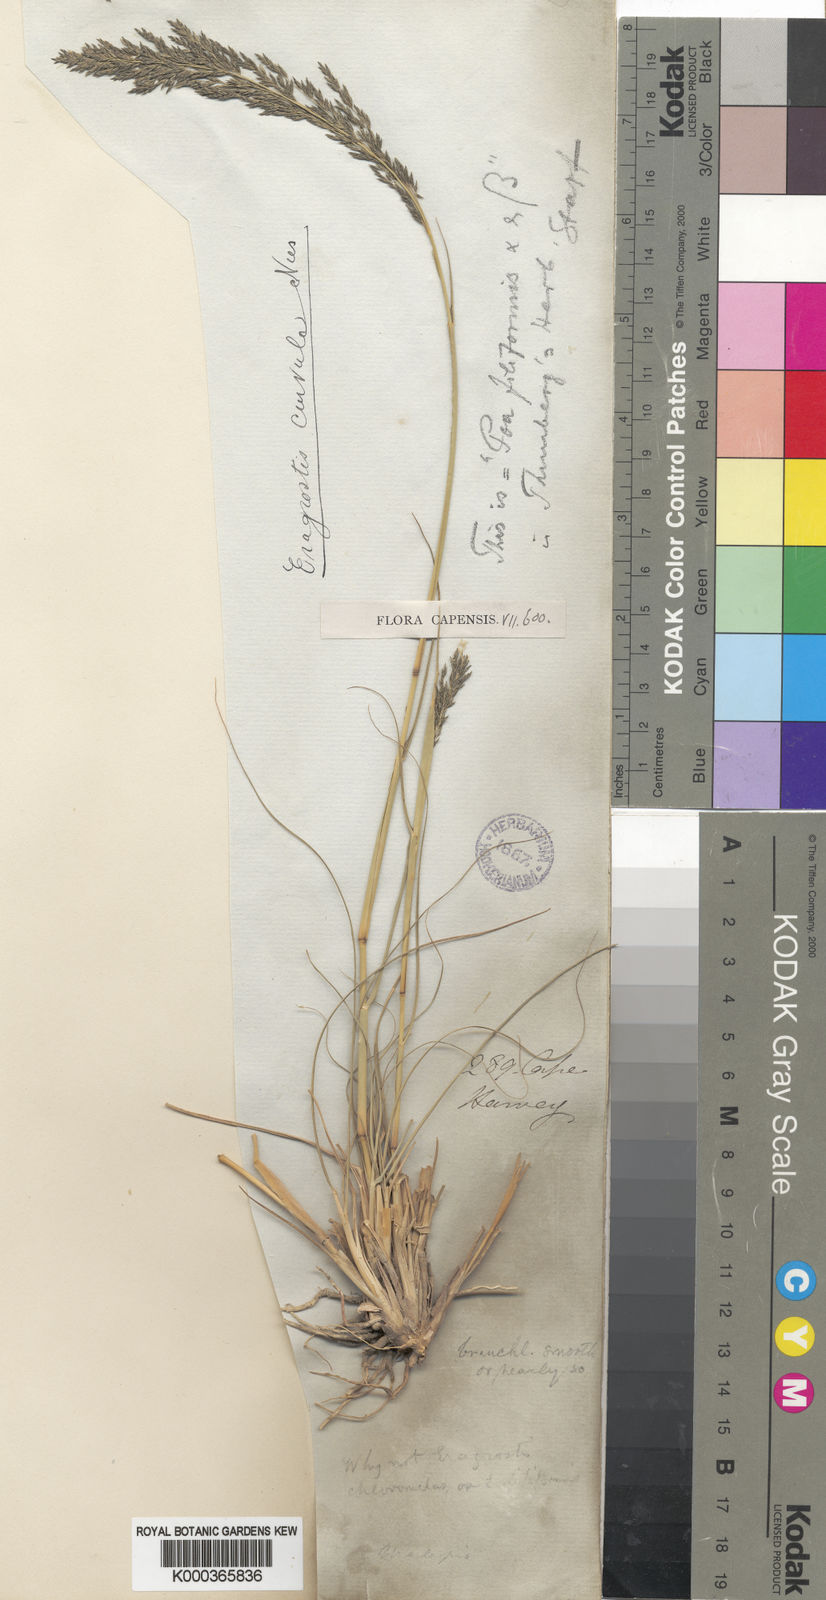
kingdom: Plantae
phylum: Tracheophyta
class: Liliopsida
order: Poales
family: Poaceae
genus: Eragrostis
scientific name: Eragrostis curvula
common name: African love-grass
